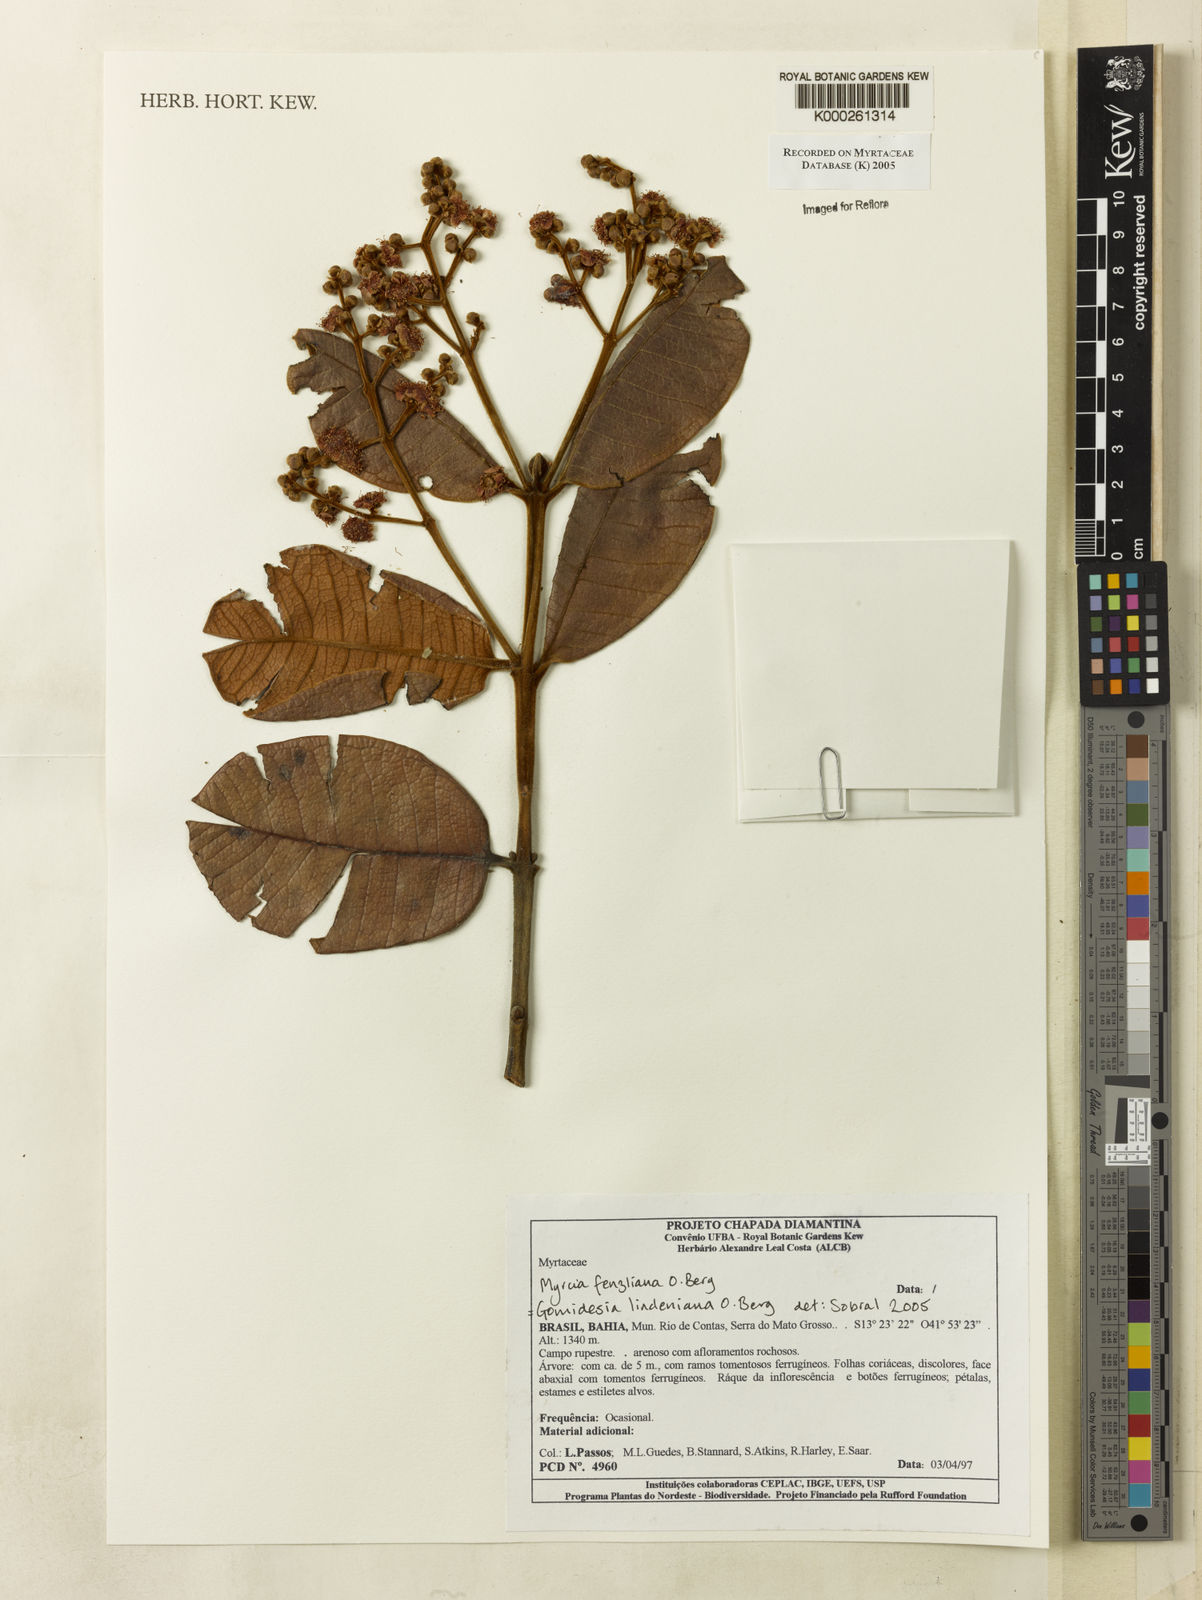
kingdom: Plantae
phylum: Tracheophyta
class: Magnoliopsida
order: Myrtales
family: Myrtaceae
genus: Myrcia
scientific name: Myrcia fenzliana
